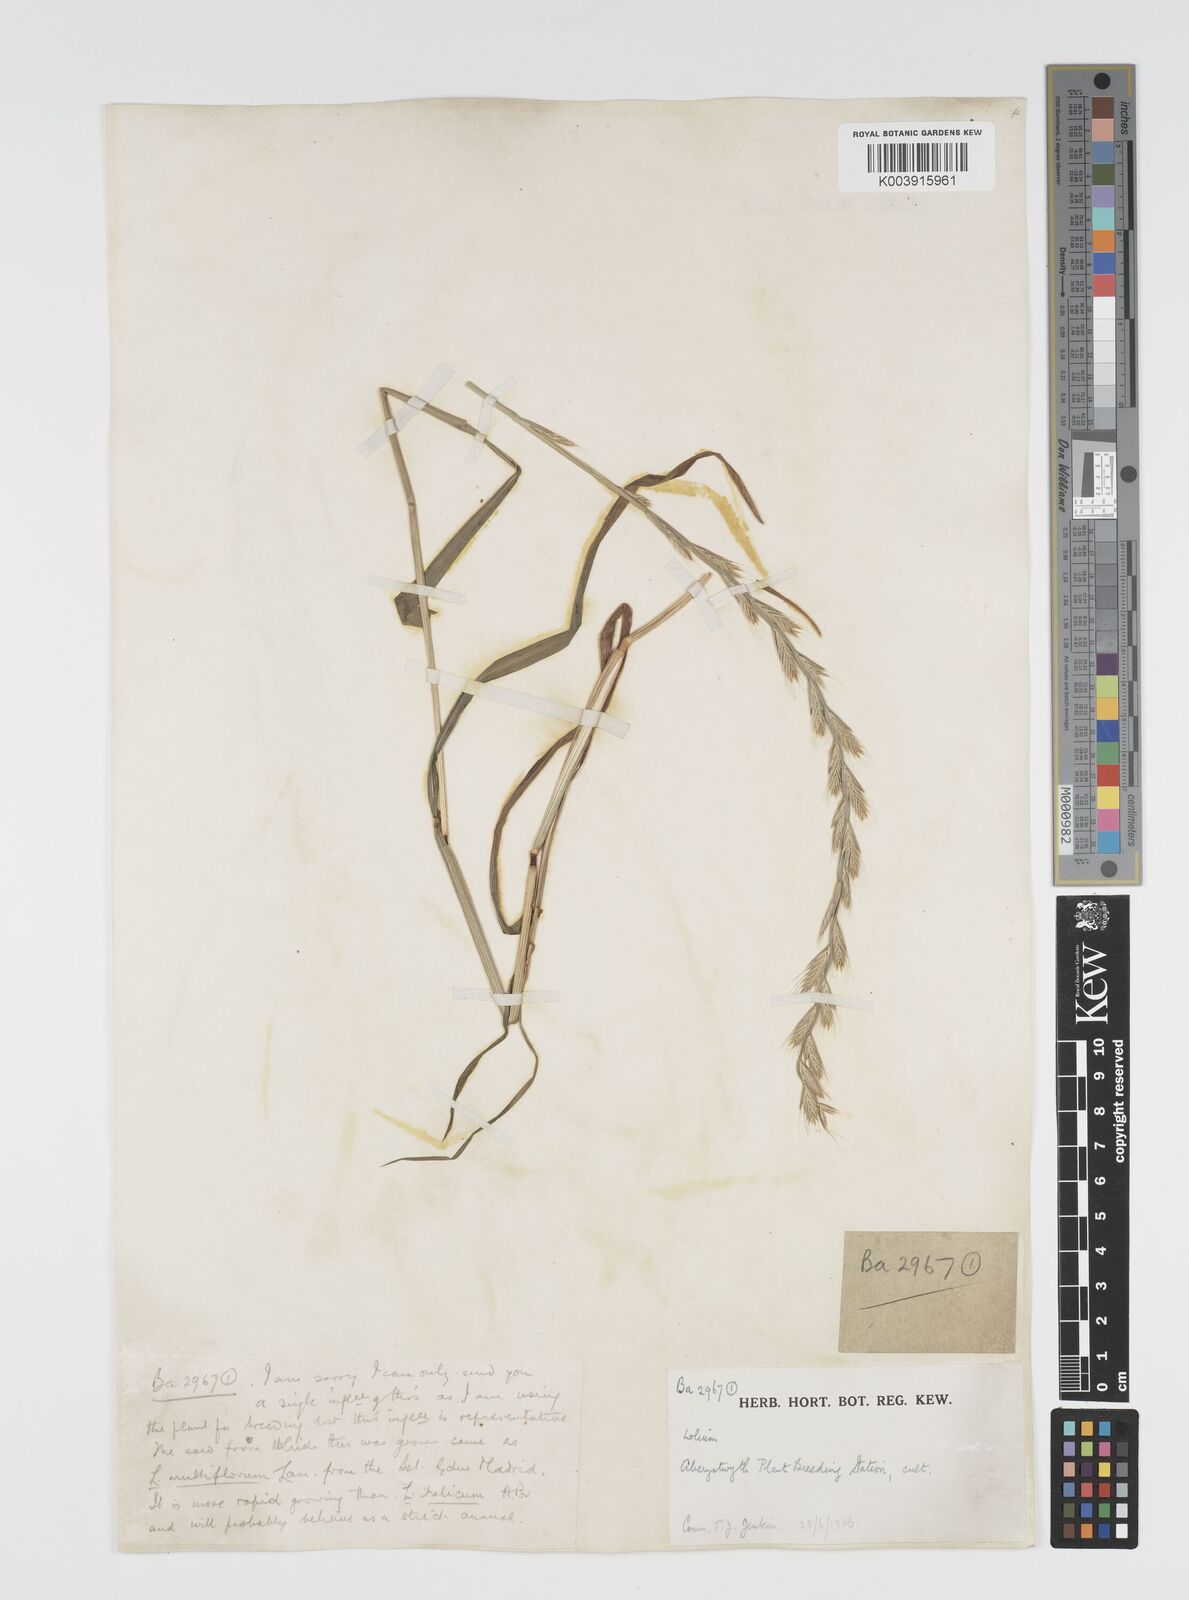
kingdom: Plantae
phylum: Tracheophyta
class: Liliopsida
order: Poales
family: Poaceae
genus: Lolium
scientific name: Lolium multiflorum
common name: Annual ryegrass
